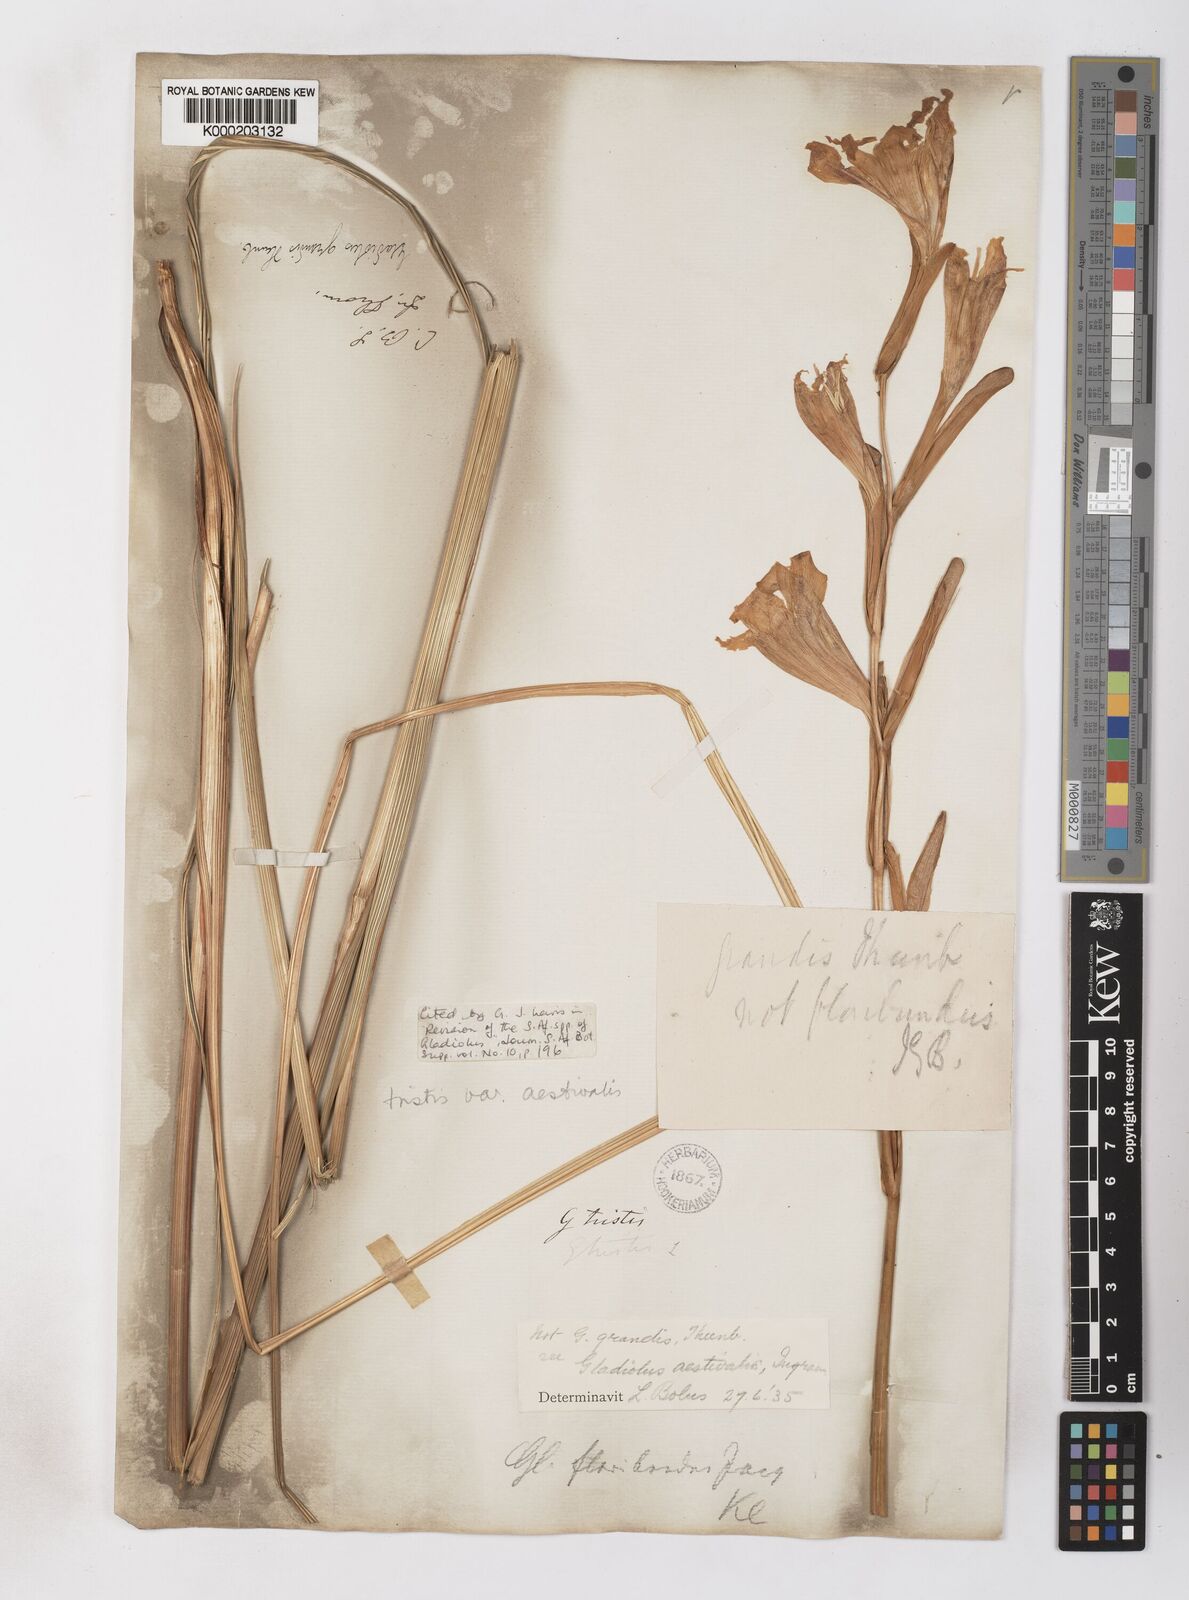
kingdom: Plantae
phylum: Tracheophyta
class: Liliopsida
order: Asparagales
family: Iridaceae
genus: Gladiolus
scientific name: Gladiolus tristis
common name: Ever-flowering gladiolus
